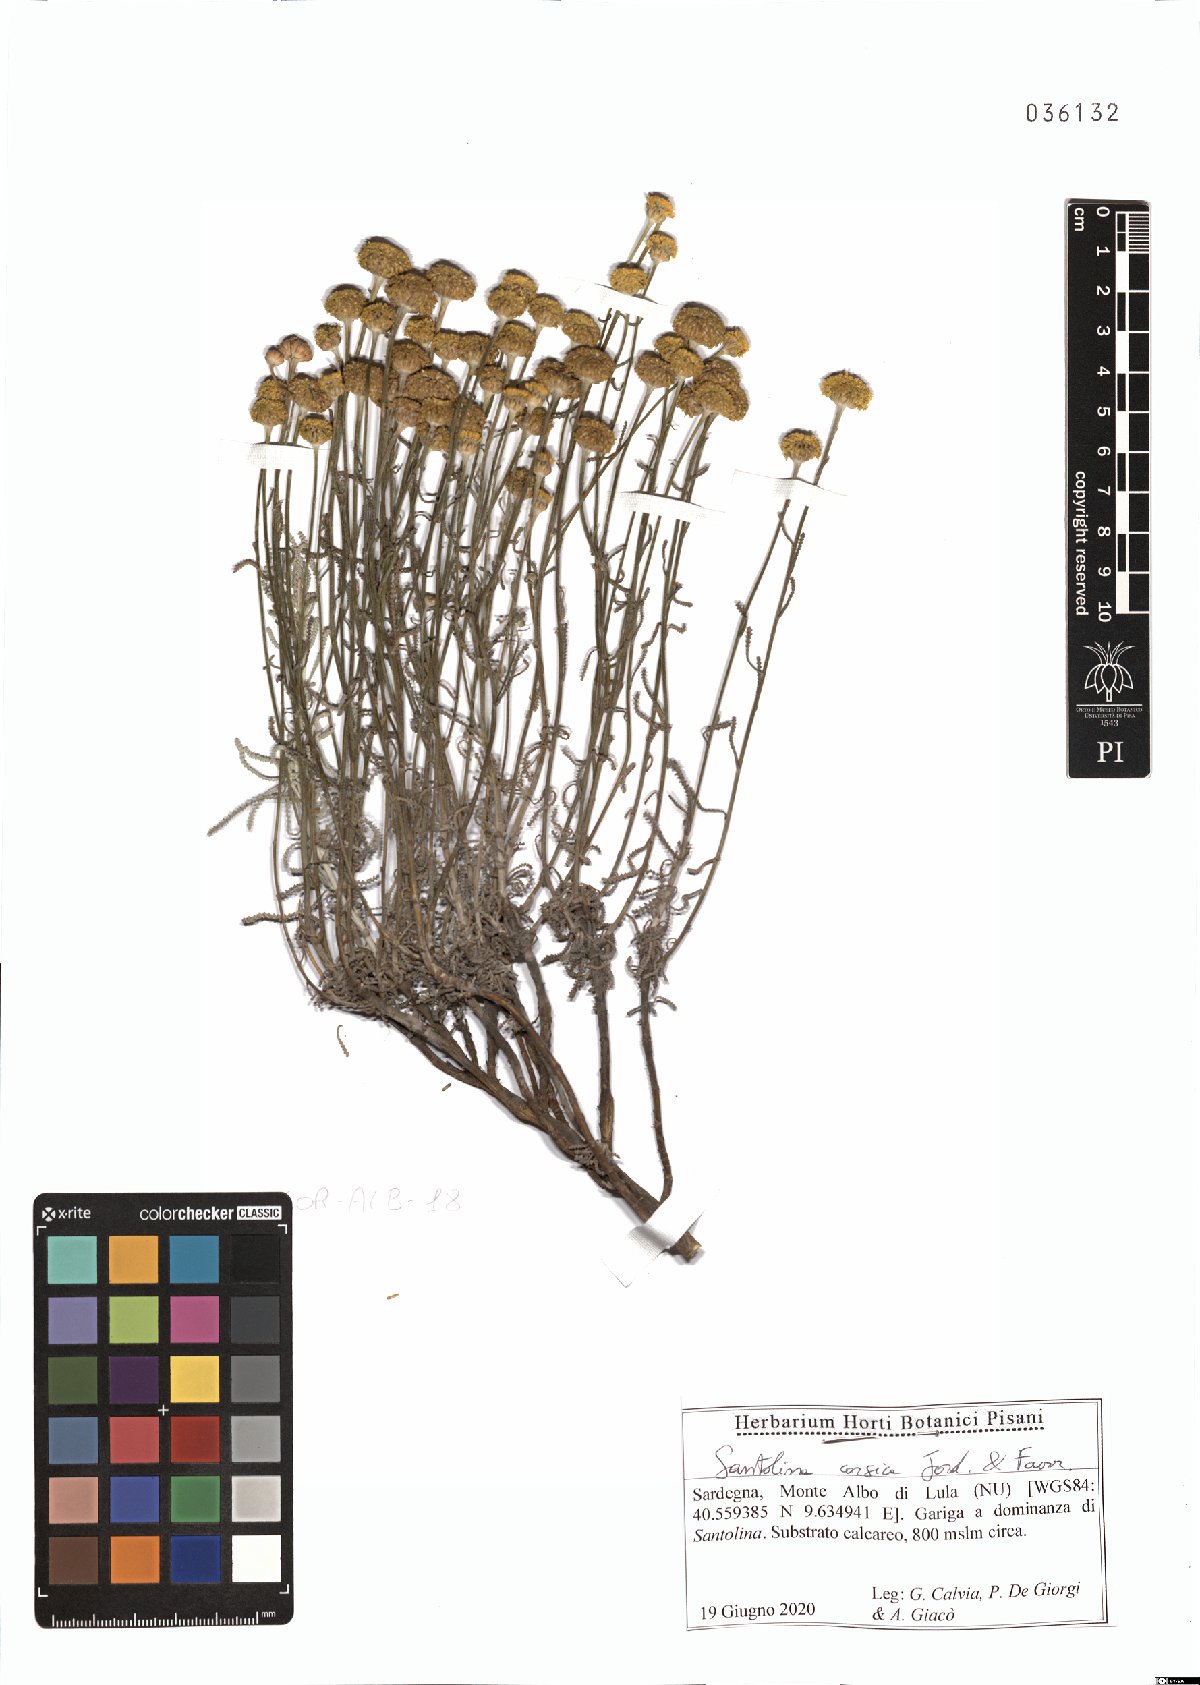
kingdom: Plantae
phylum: Tracheophyta
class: Magnoliopsida
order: Asterales
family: Asteraceae
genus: Santolina
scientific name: Santolina corsica
